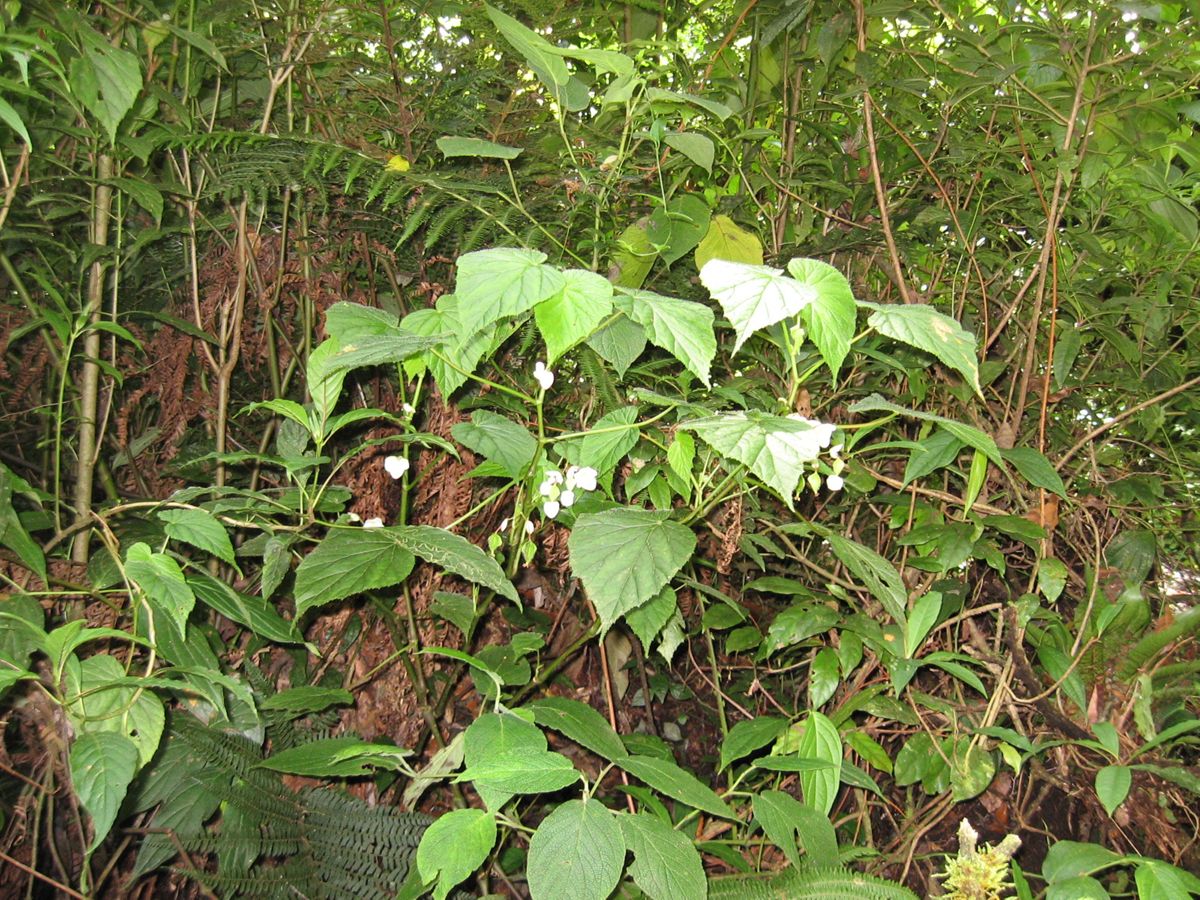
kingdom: Plantae
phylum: Tracheophyta
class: Magnoliopsida
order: Cucurbitales
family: Begoniaceae
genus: Begonia
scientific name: Begonia oaxacana
